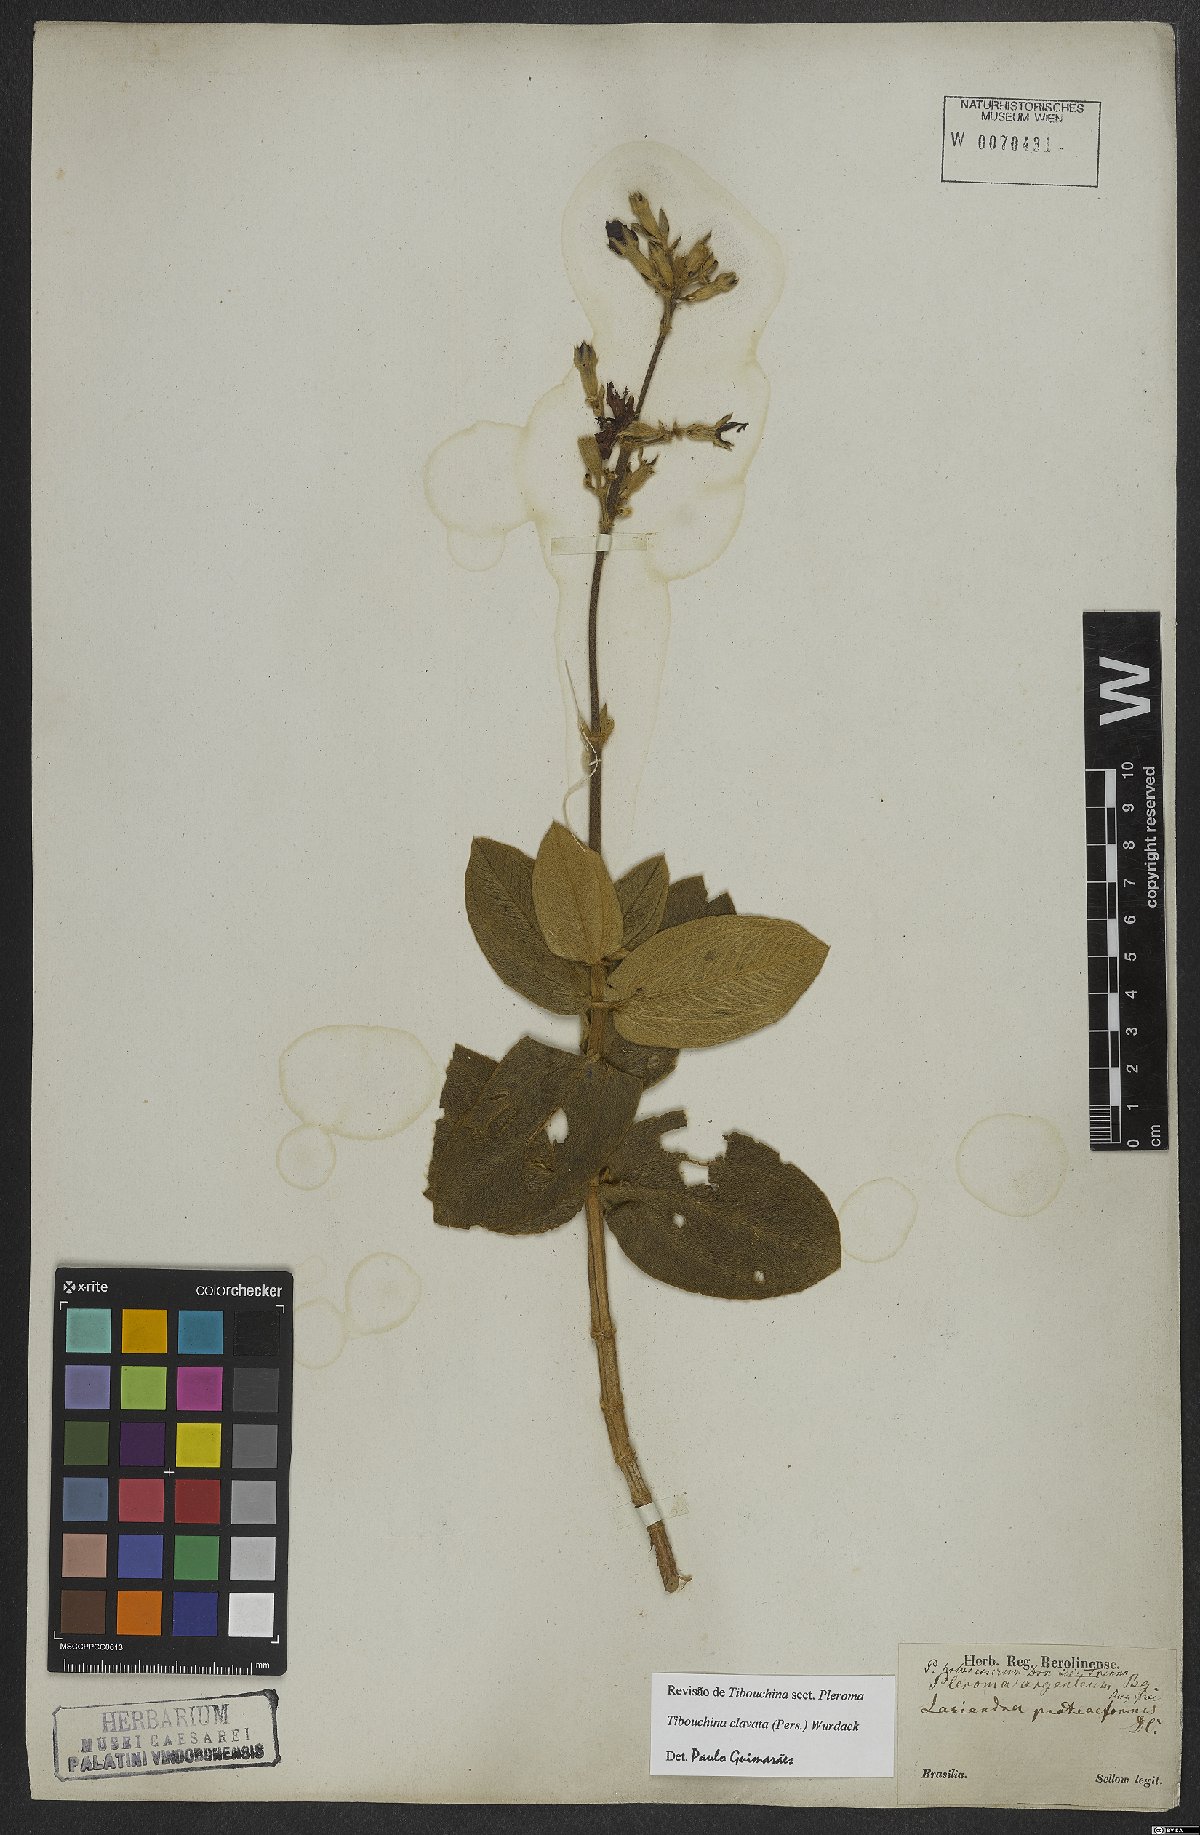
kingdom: Plantae
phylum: Tracheophyta
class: Magnoliopsida
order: Myrtales
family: Melastomataceae
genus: Pleroma
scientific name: Pleroma clavatum
